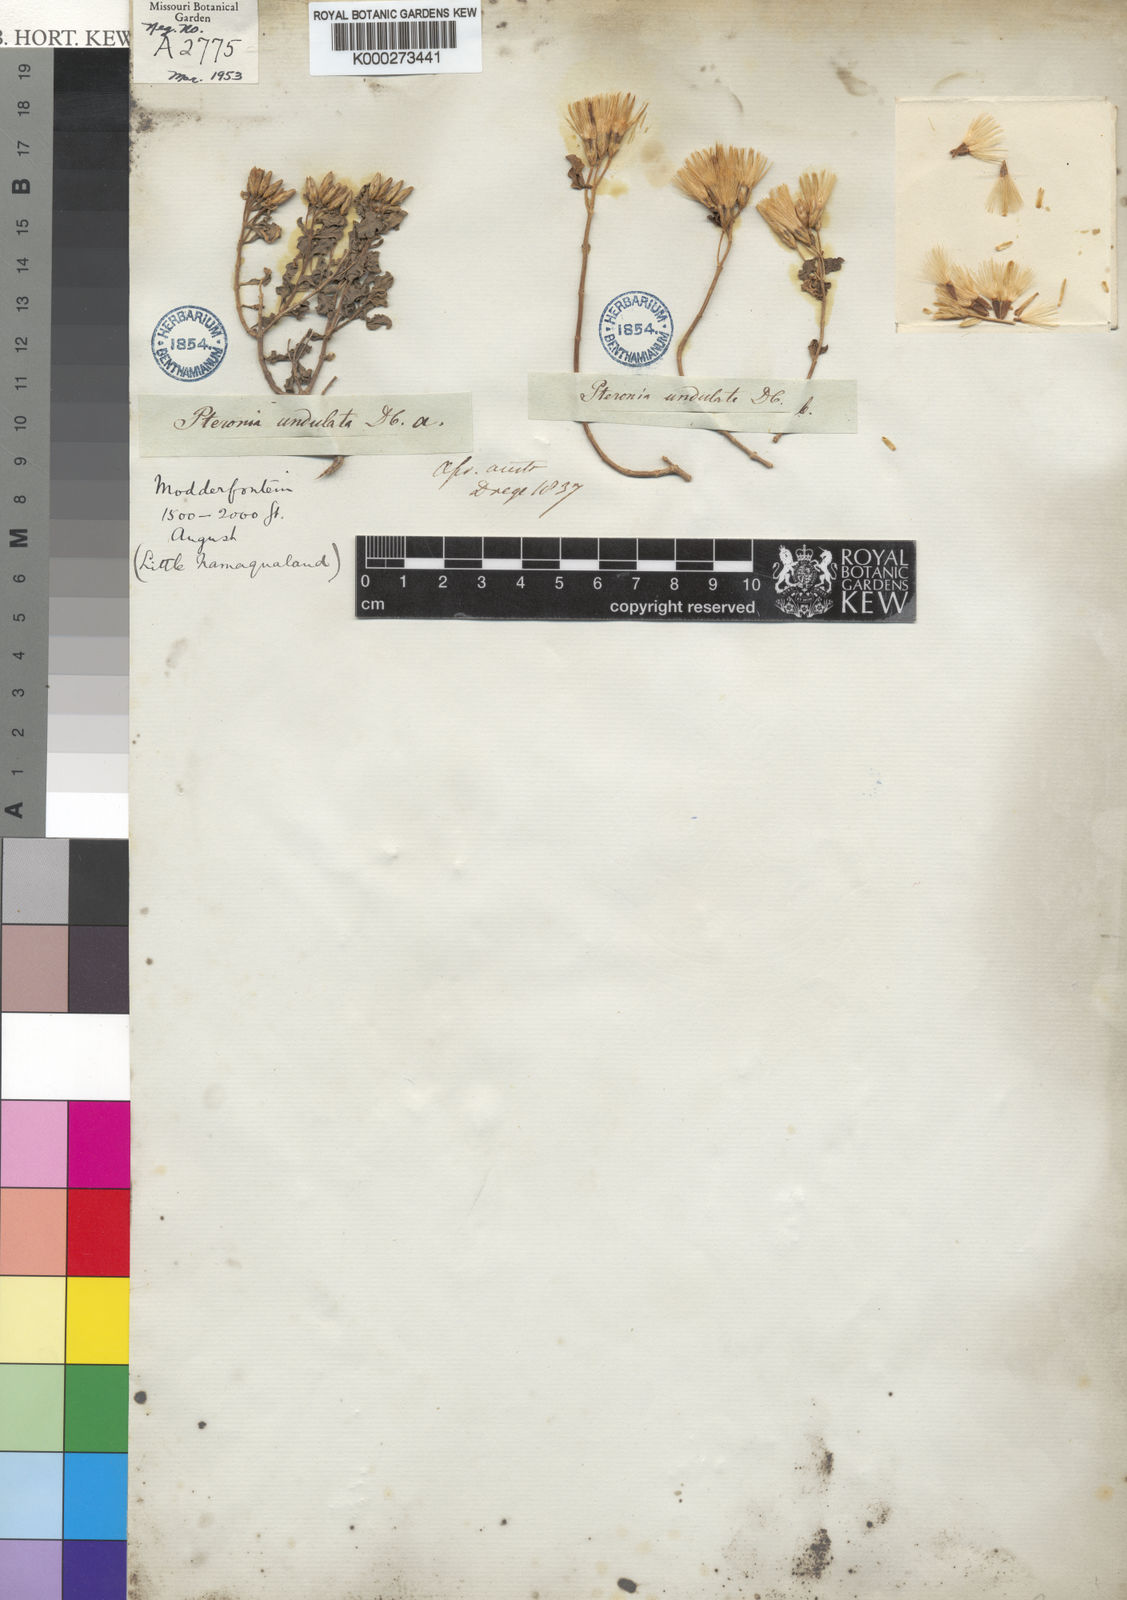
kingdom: Plantae
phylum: Tracheophyta
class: Magnoliopsida
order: Asterales
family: Asteraceae
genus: Pteronia
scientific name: Pteronia undulata
